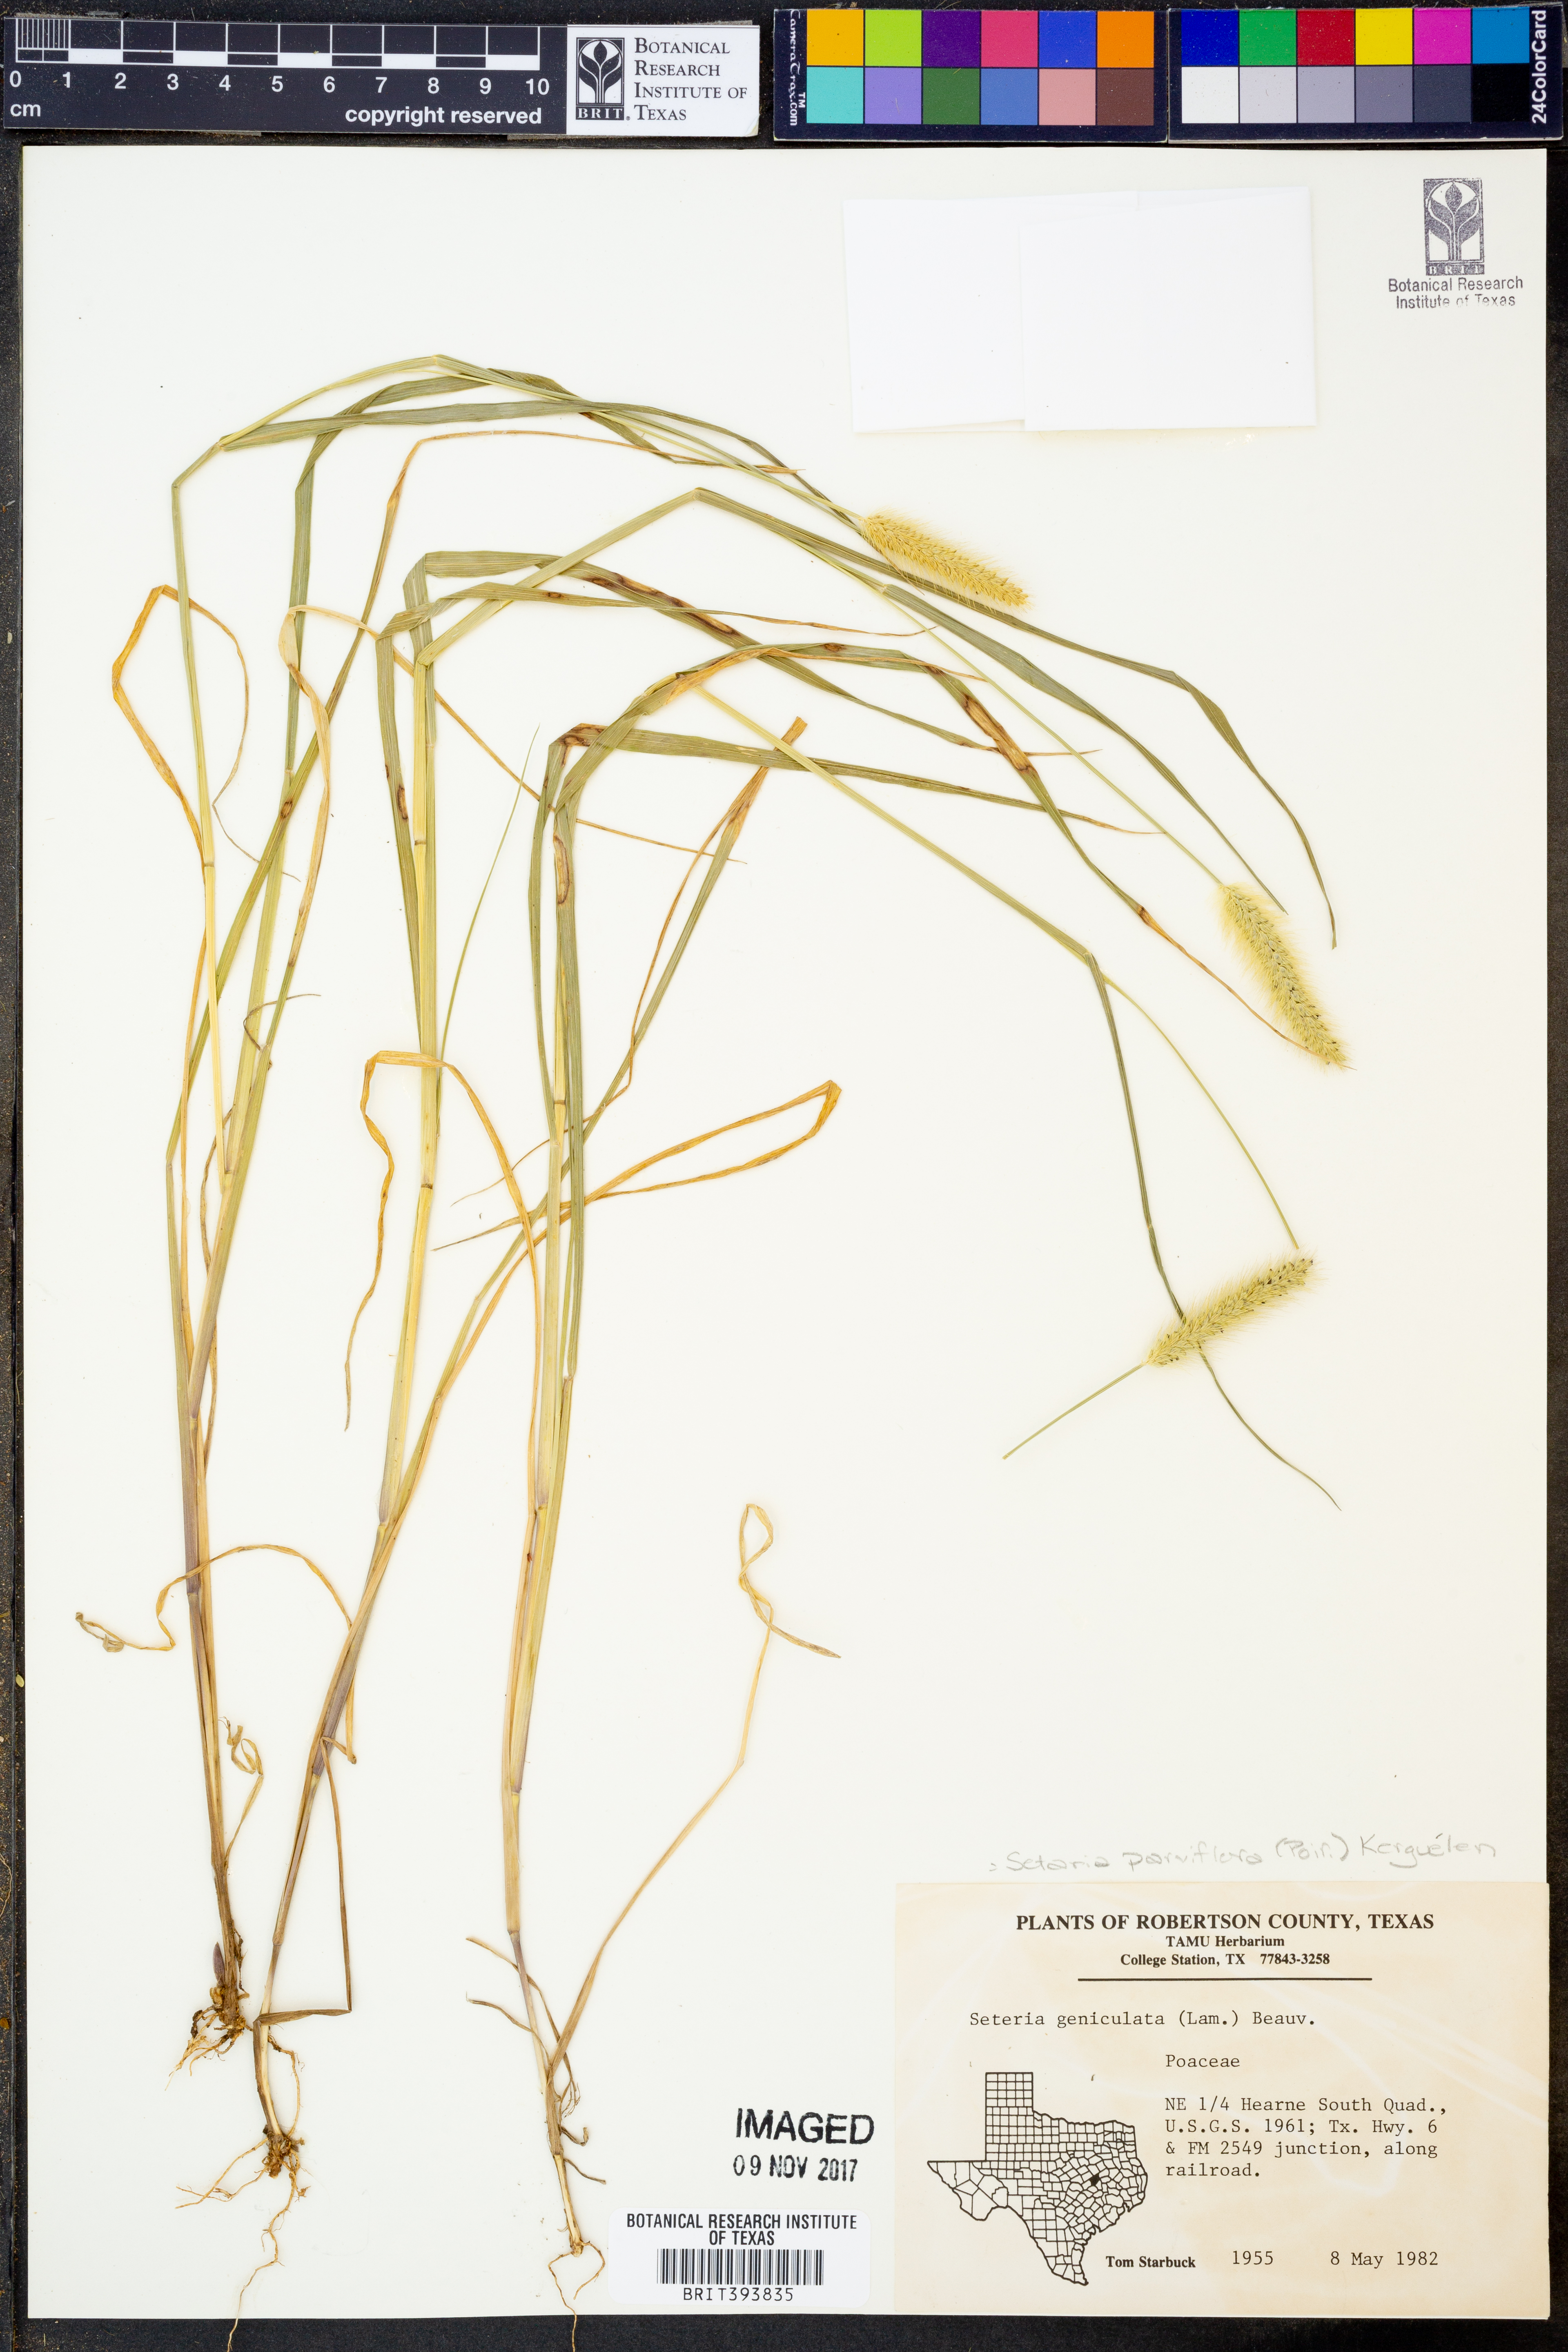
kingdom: Plantae
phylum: Tracheophyta
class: Liliopsida
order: Poales
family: Poaceae
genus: Setaria
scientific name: Setaria parviflora
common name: Knotroot bristle-grass
